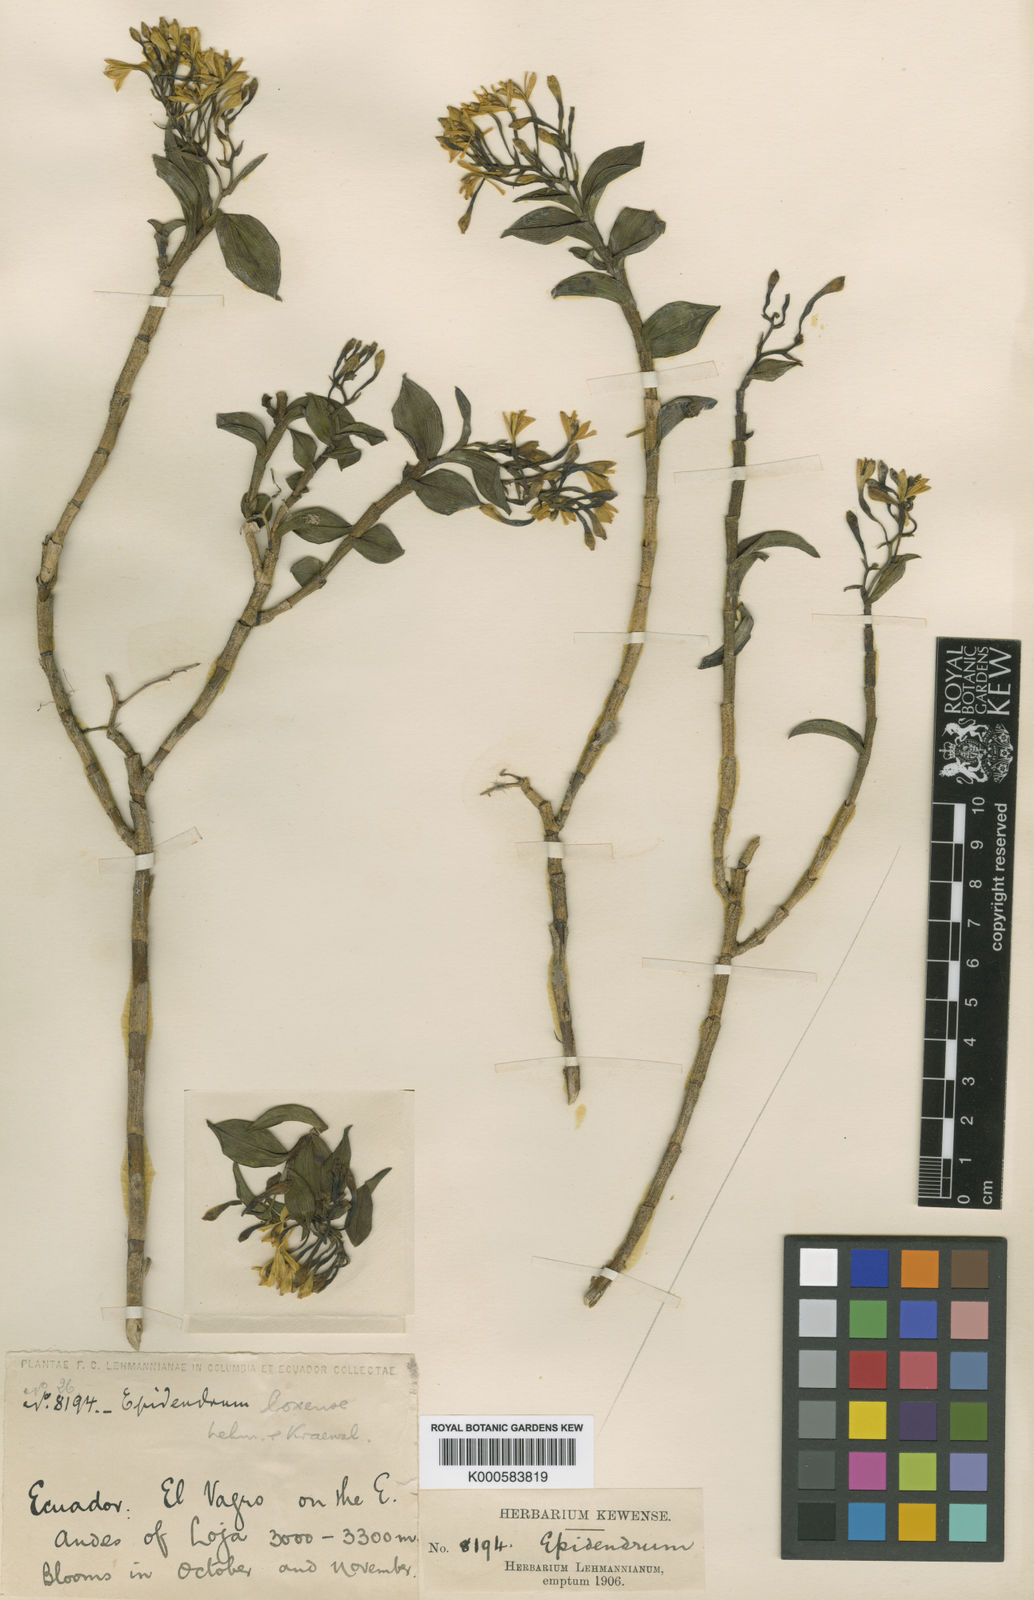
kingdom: Plantae
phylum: Tracheophyta
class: Liliopsida
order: Asparagales
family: Orchidaceae
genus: Epidendrum
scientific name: Epidendrum loxense
